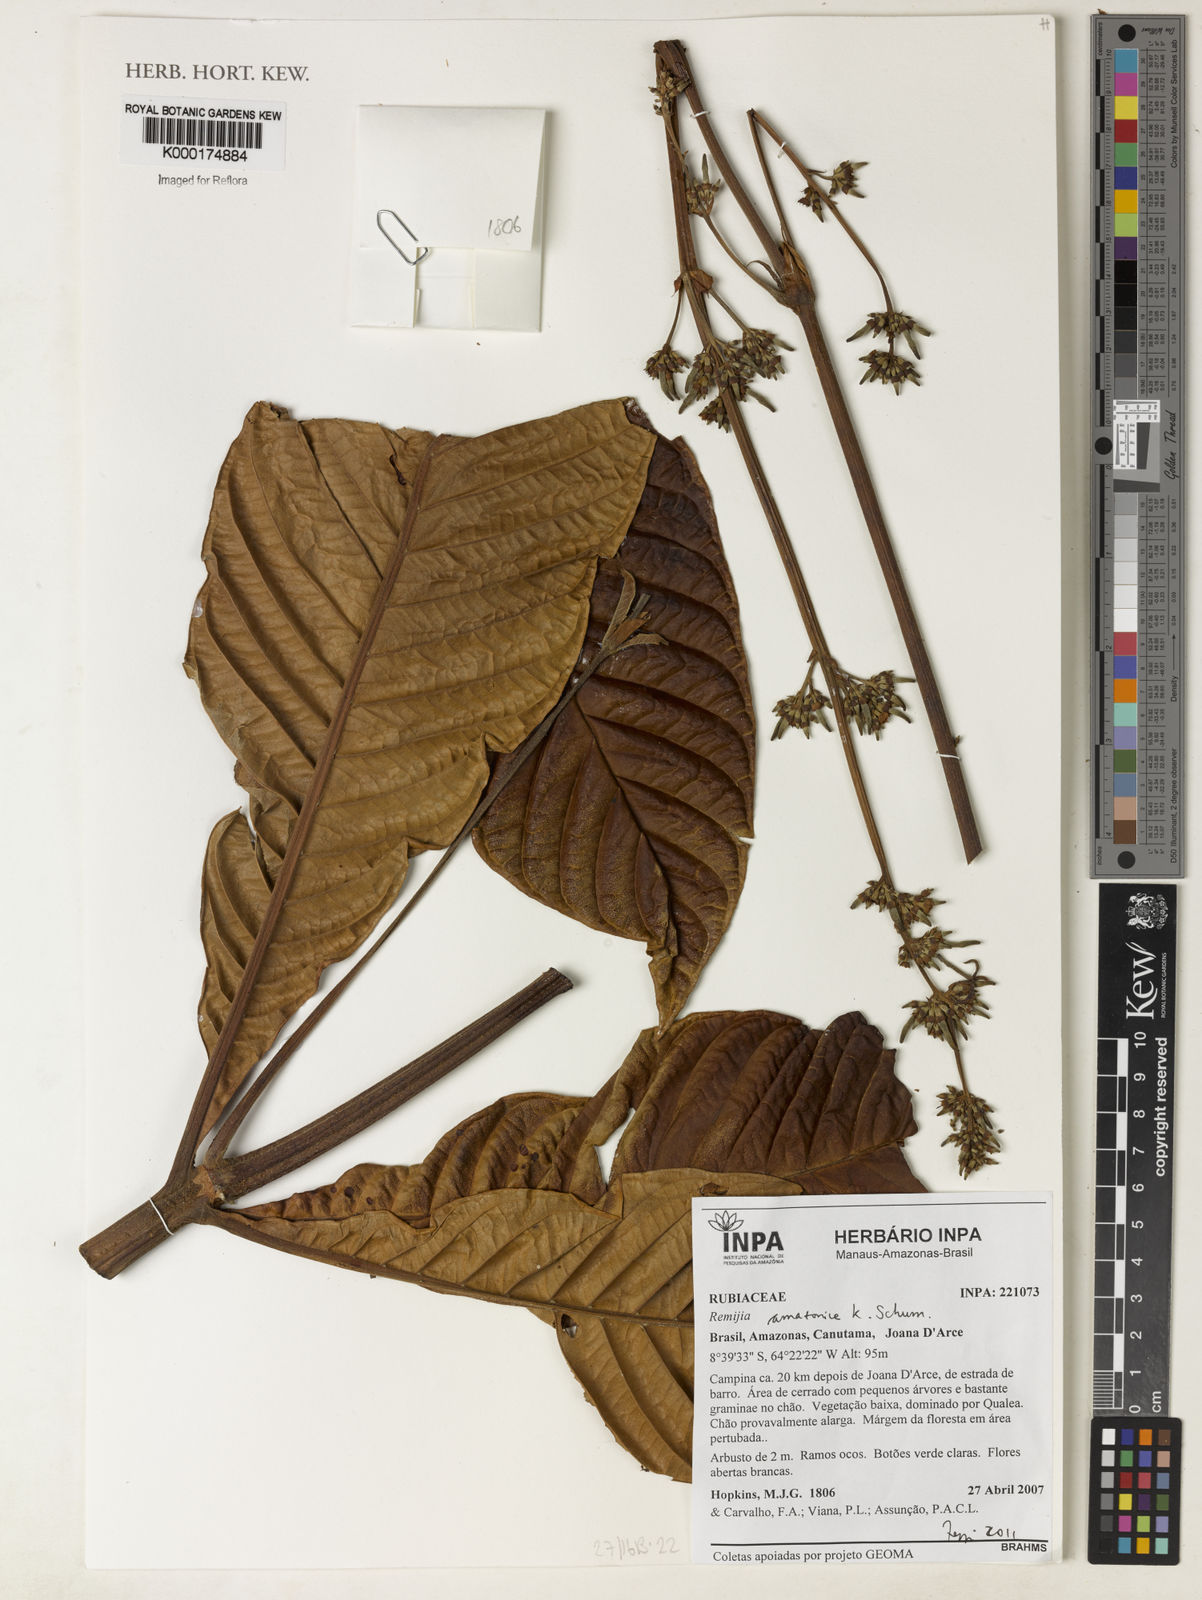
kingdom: Plantae
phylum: Tracheophyta
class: Magnoliopsida
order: Gentianales
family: Rubiaceae
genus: Remijia
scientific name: Remijia amazonica
